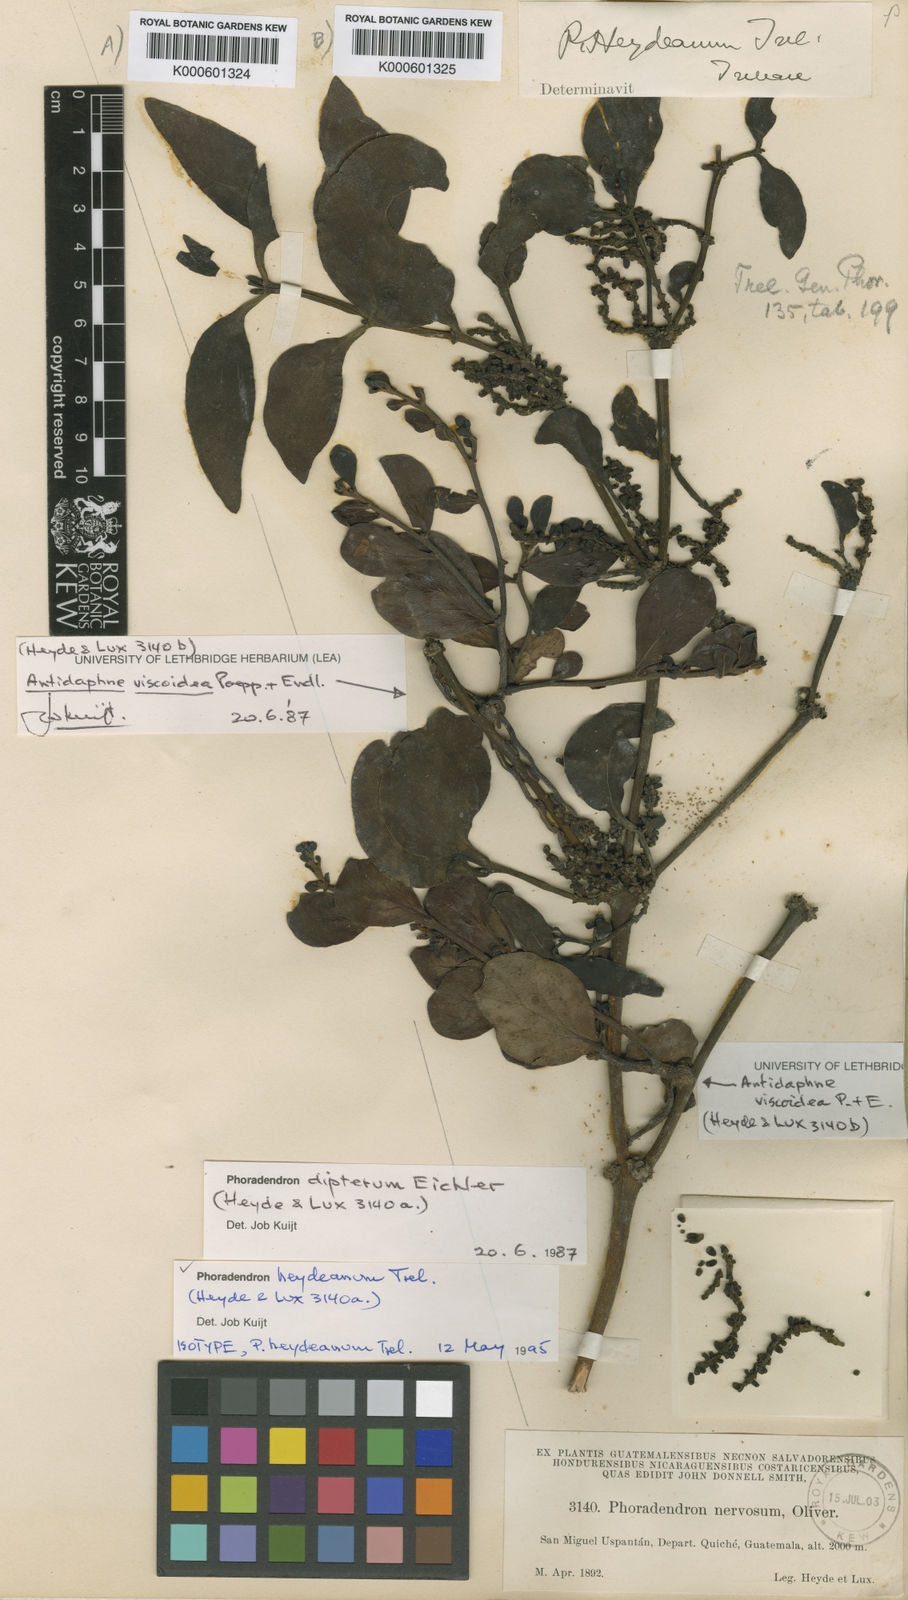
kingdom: Plantae
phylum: Tracheophyta
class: Magnoliopsida
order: Santalales
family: Viscaceae
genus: Phoradendron
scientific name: Phoradendron heydeanum
